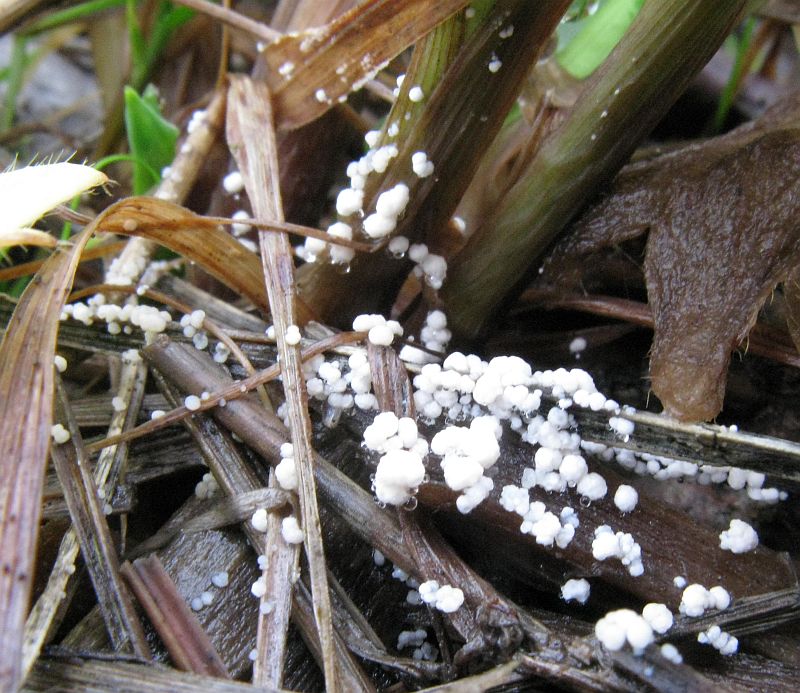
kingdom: Fungi
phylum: Basidiomycota
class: Tremellomycetes
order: Tremellales
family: Rhynchogastremaceae
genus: Tetragoniomyces
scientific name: Tetragoniomyces uliginosus
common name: sklerotie-snyltehjerne
